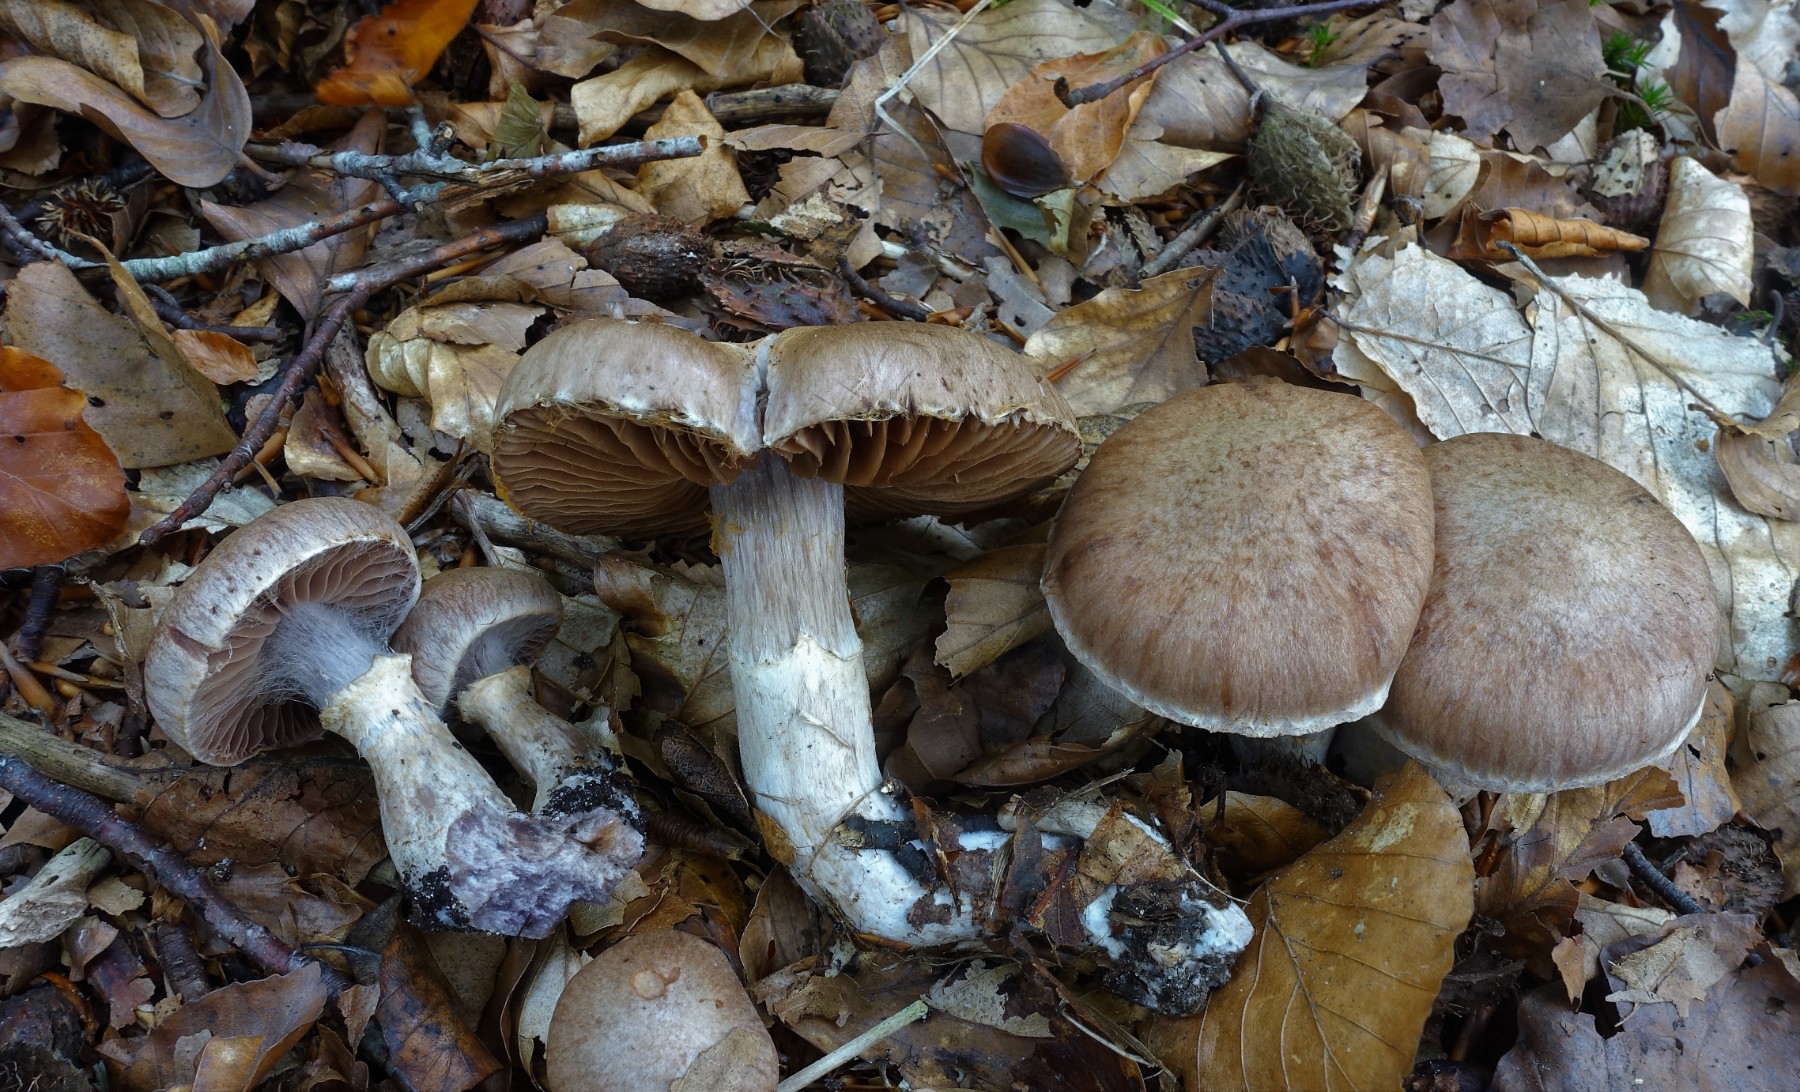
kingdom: Fungi
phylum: Basidiomycota
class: Agaricomycetes
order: Agaricales
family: Cortinariaceae
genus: Cortinarius
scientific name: Cortinarius torvus
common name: champignonagtig slørhat
